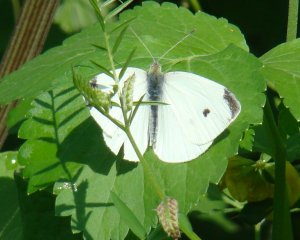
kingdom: Animalia
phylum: Arthropoda
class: Insecta
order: Lepidoptera
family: Pieridae
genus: Pieris
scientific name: Pieris rapae
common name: Cabbage White
